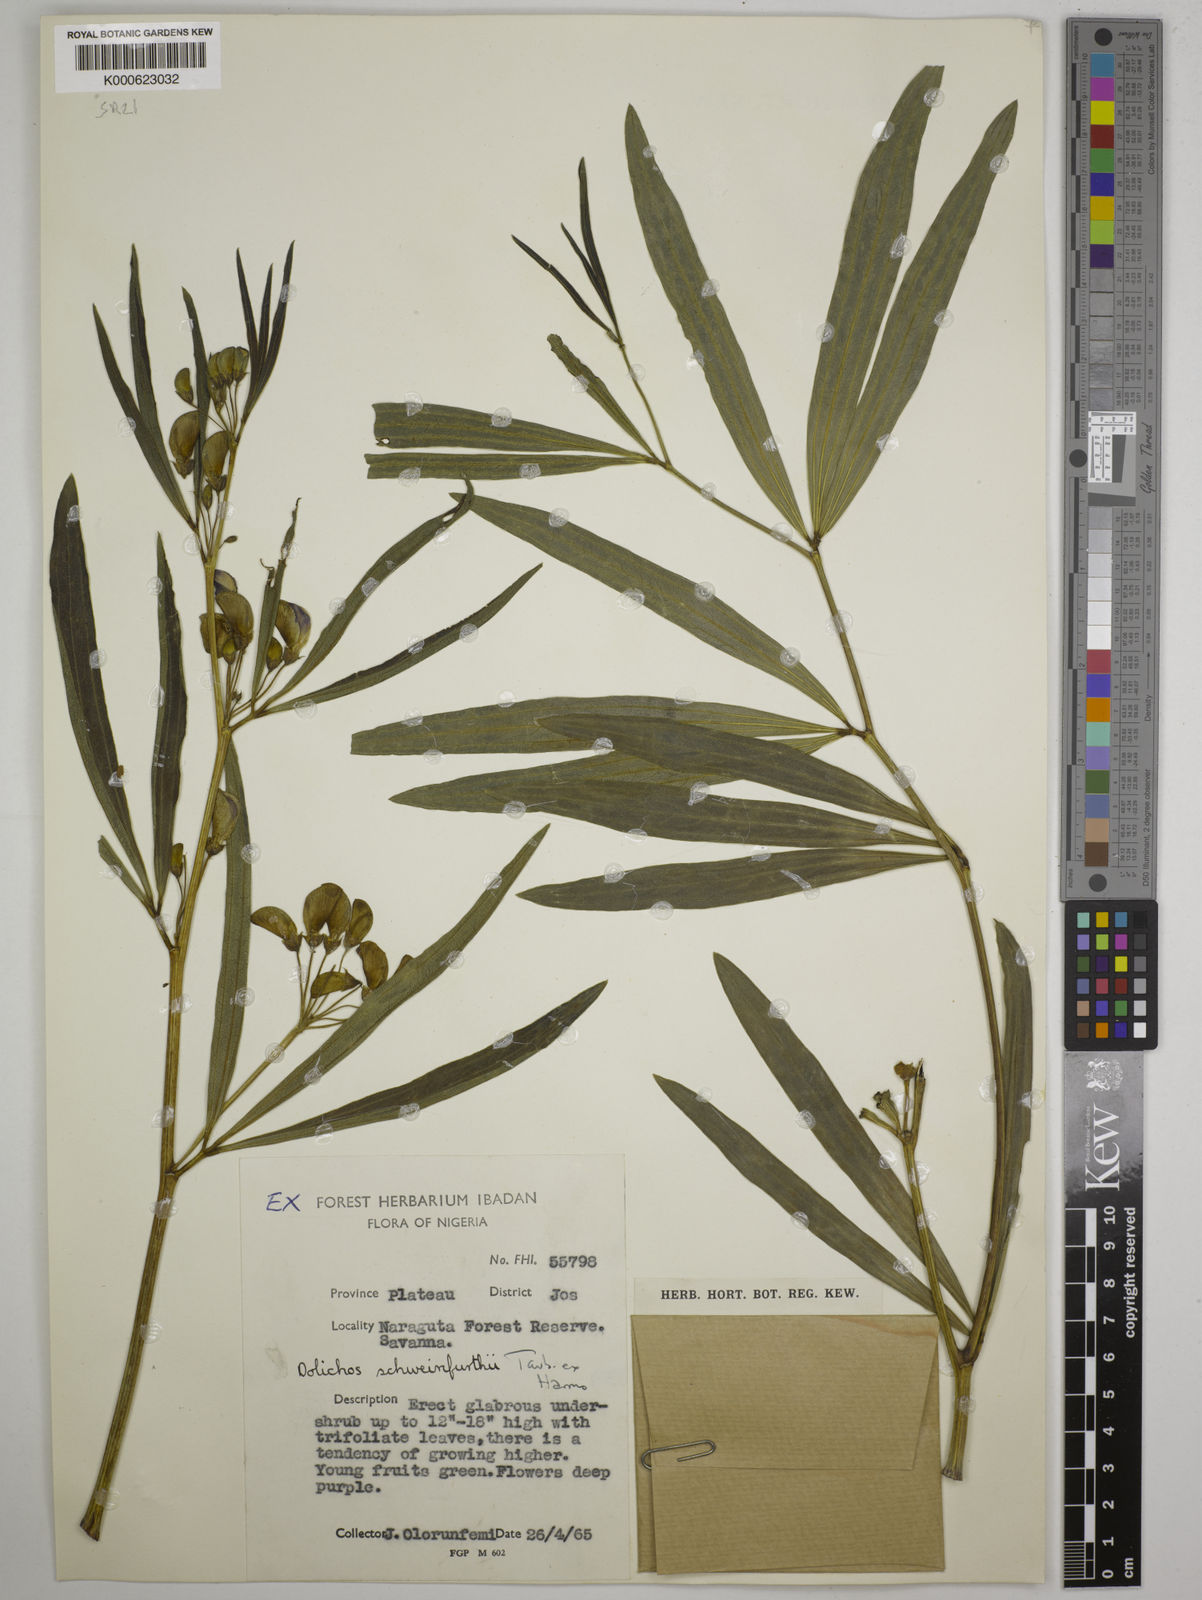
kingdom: Plantae
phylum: Tracheophyta
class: Magnoliopsida
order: Fabales
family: Fabaceae
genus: Dolichos
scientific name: Dolichos
